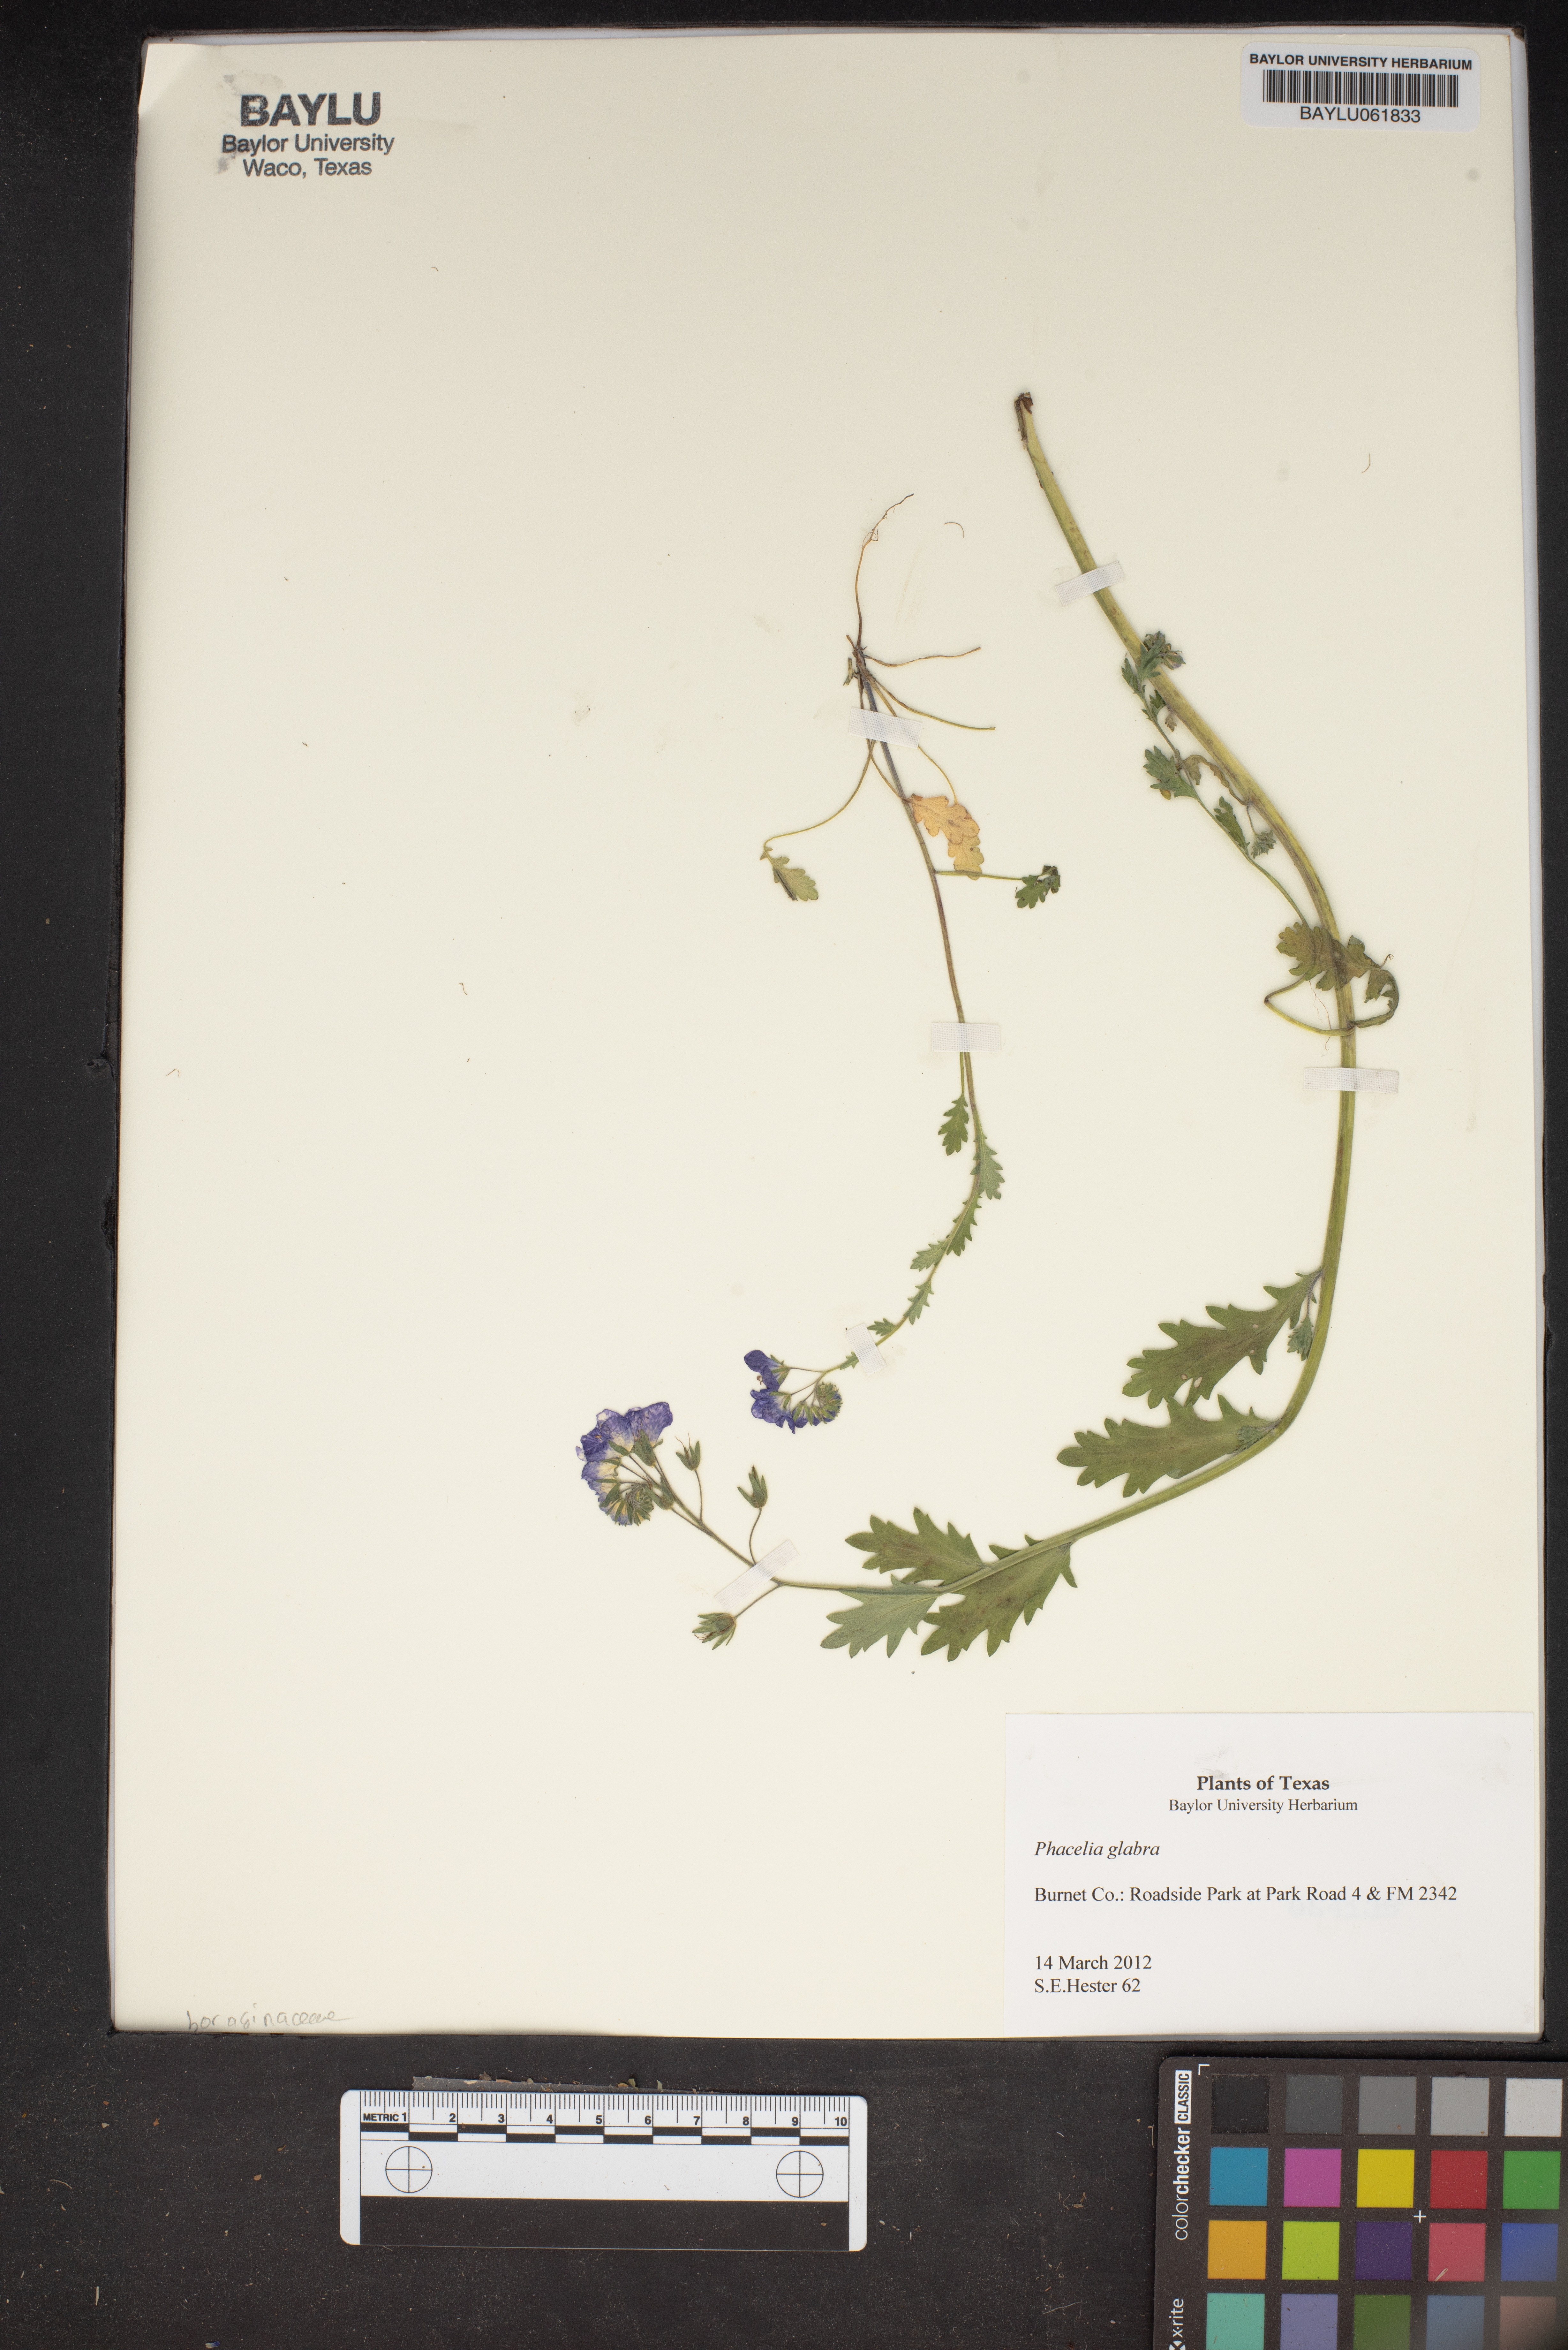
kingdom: Plantae
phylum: Tracheophyta
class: Magnoliopsida
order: Boraginales
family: Hydrophyllaceae
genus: Phacelia
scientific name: Phacelia glabra
